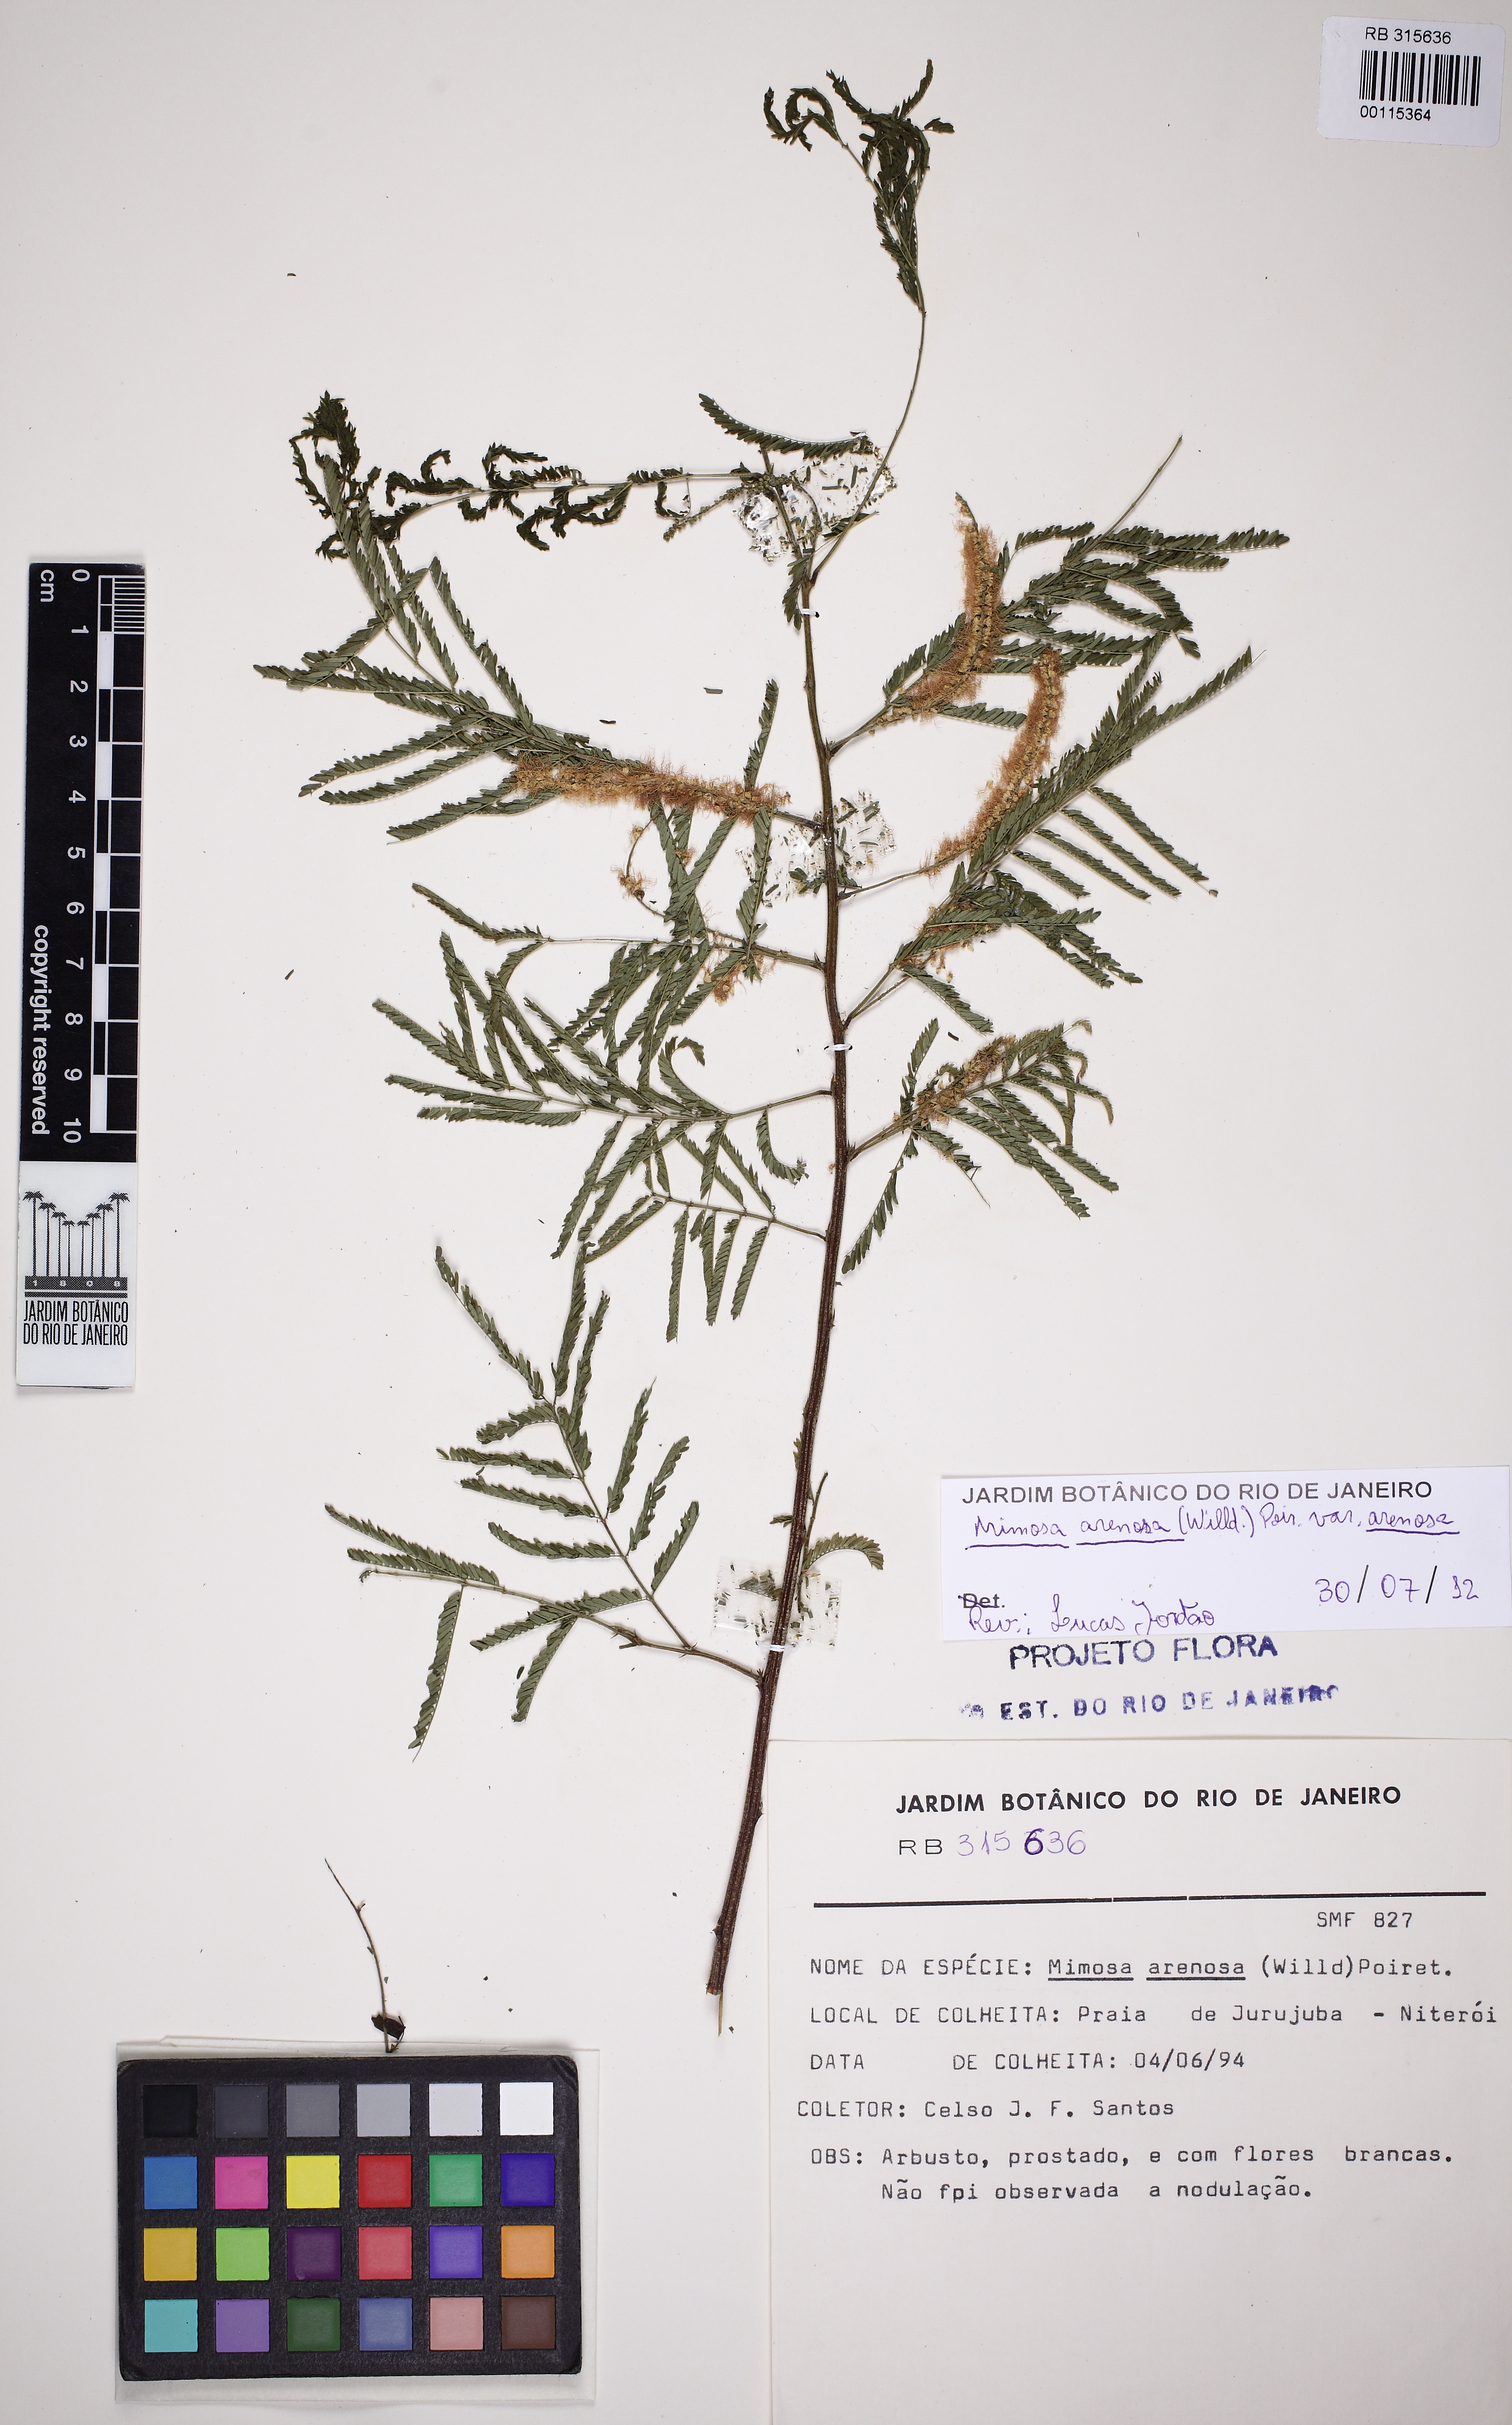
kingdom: Plantae
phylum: Tracheophyta
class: Magnoliopsida
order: Fabales
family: Fabaceae
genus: Mimosa
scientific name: Mimosa arenosa
